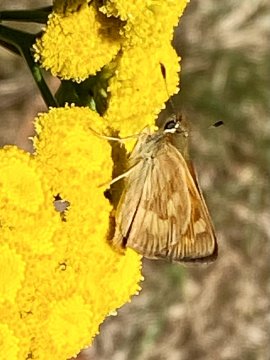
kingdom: Animalia
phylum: Arthropoda
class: Insecta
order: Lepidoptera
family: Hesperiidae
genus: Ochlodes
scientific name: Ochlodes sylvanoides
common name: Woodland Skipper
